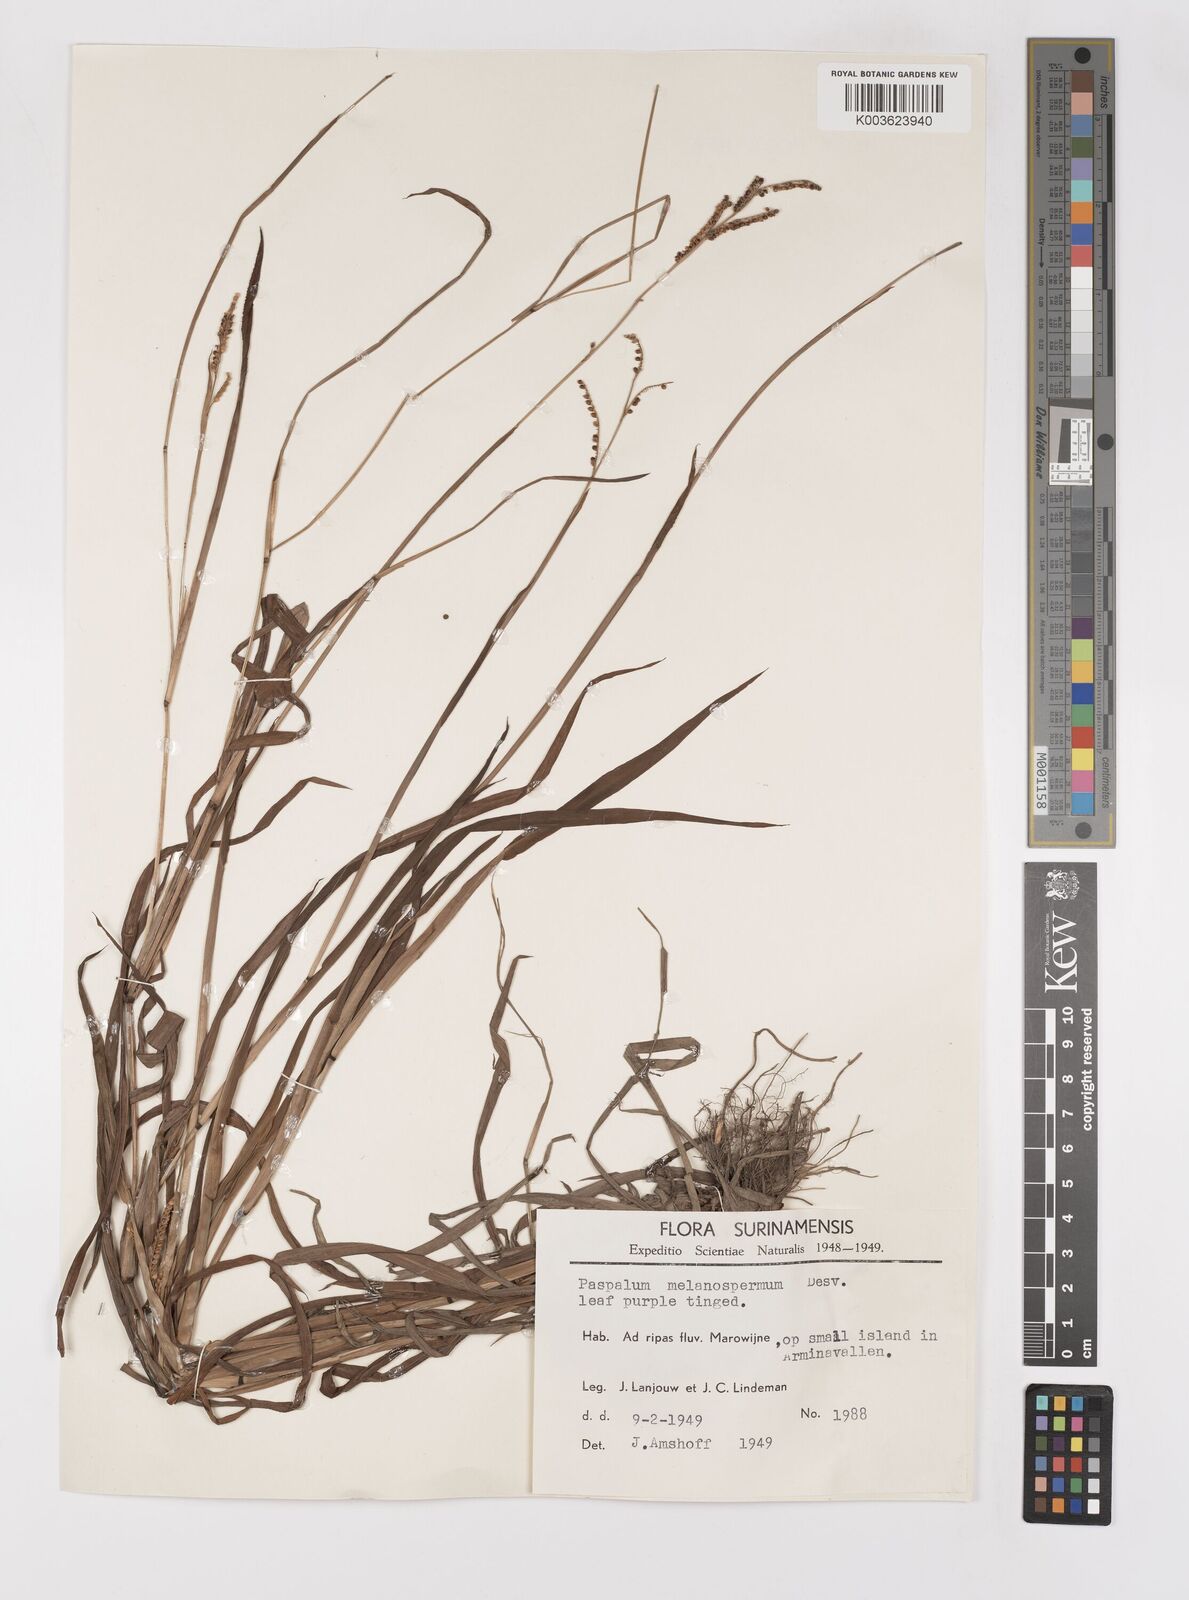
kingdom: Plantae
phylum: Tracheophyta
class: Liliopsida
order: Poales
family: Poaceae
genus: Paspalum
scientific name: Paspalum melanospermum
